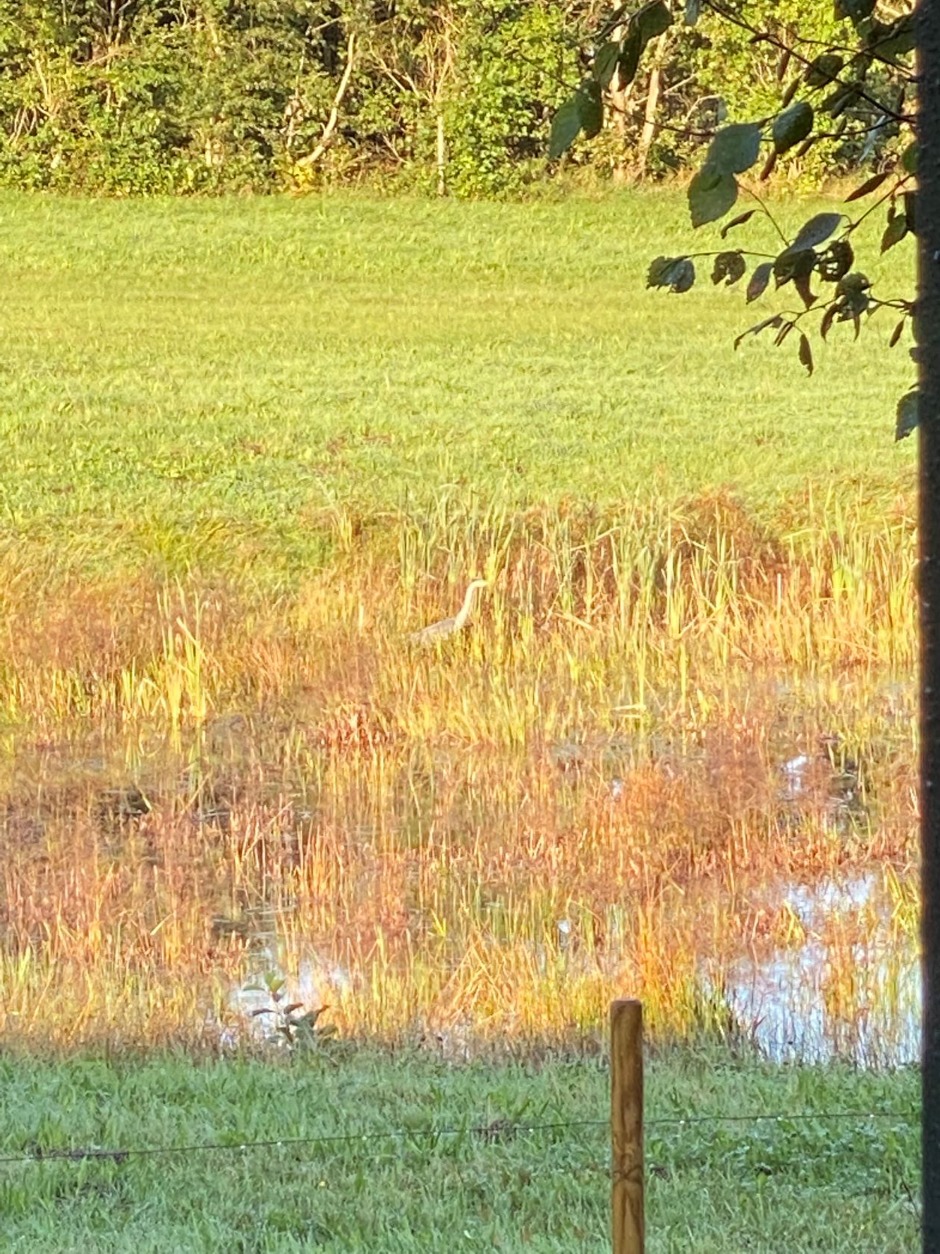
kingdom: Animalia
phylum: Chordata
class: Aves
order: Pelecaniformes
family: Ardeidae
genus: Ardea
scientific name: Ardea cinerea
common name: Fiskehejre
